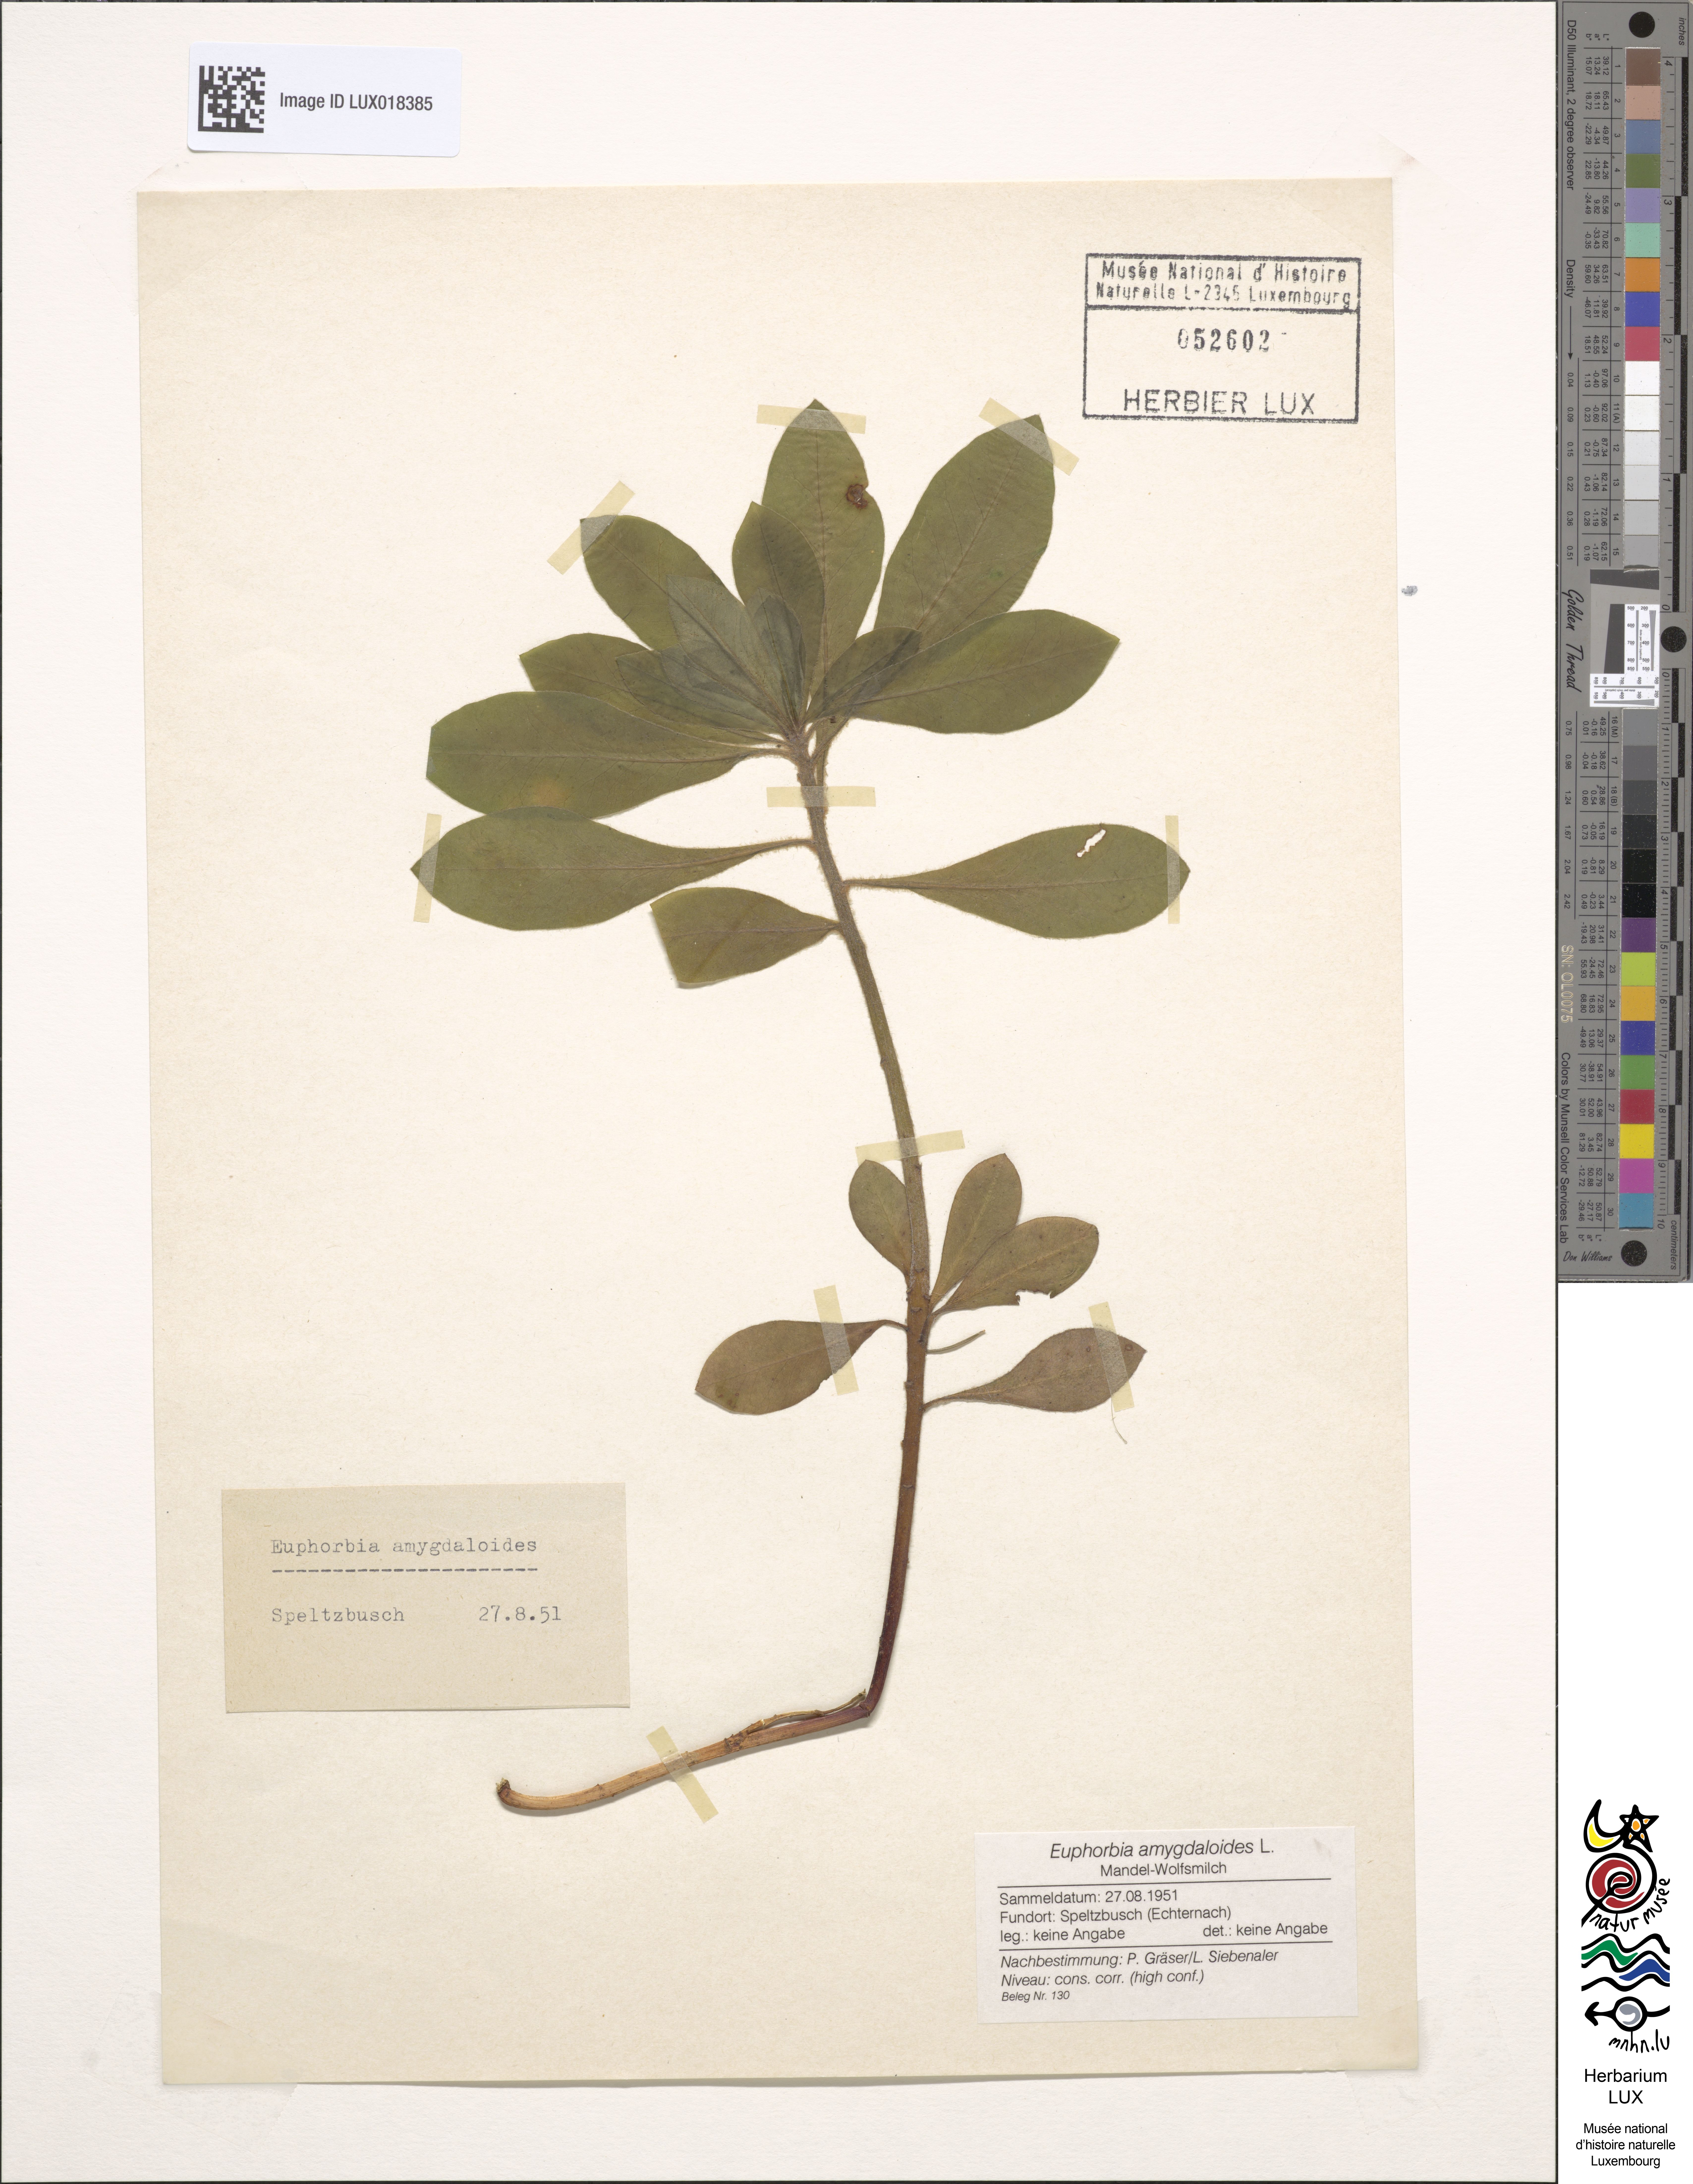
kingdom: Plantae
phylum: Tracheophyta
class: Magnoliopsida
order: Malpighiales
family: Euphorbiaceae
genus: Euphorbia
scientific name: Euphorbia amygdaloides
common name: Wood spurge
